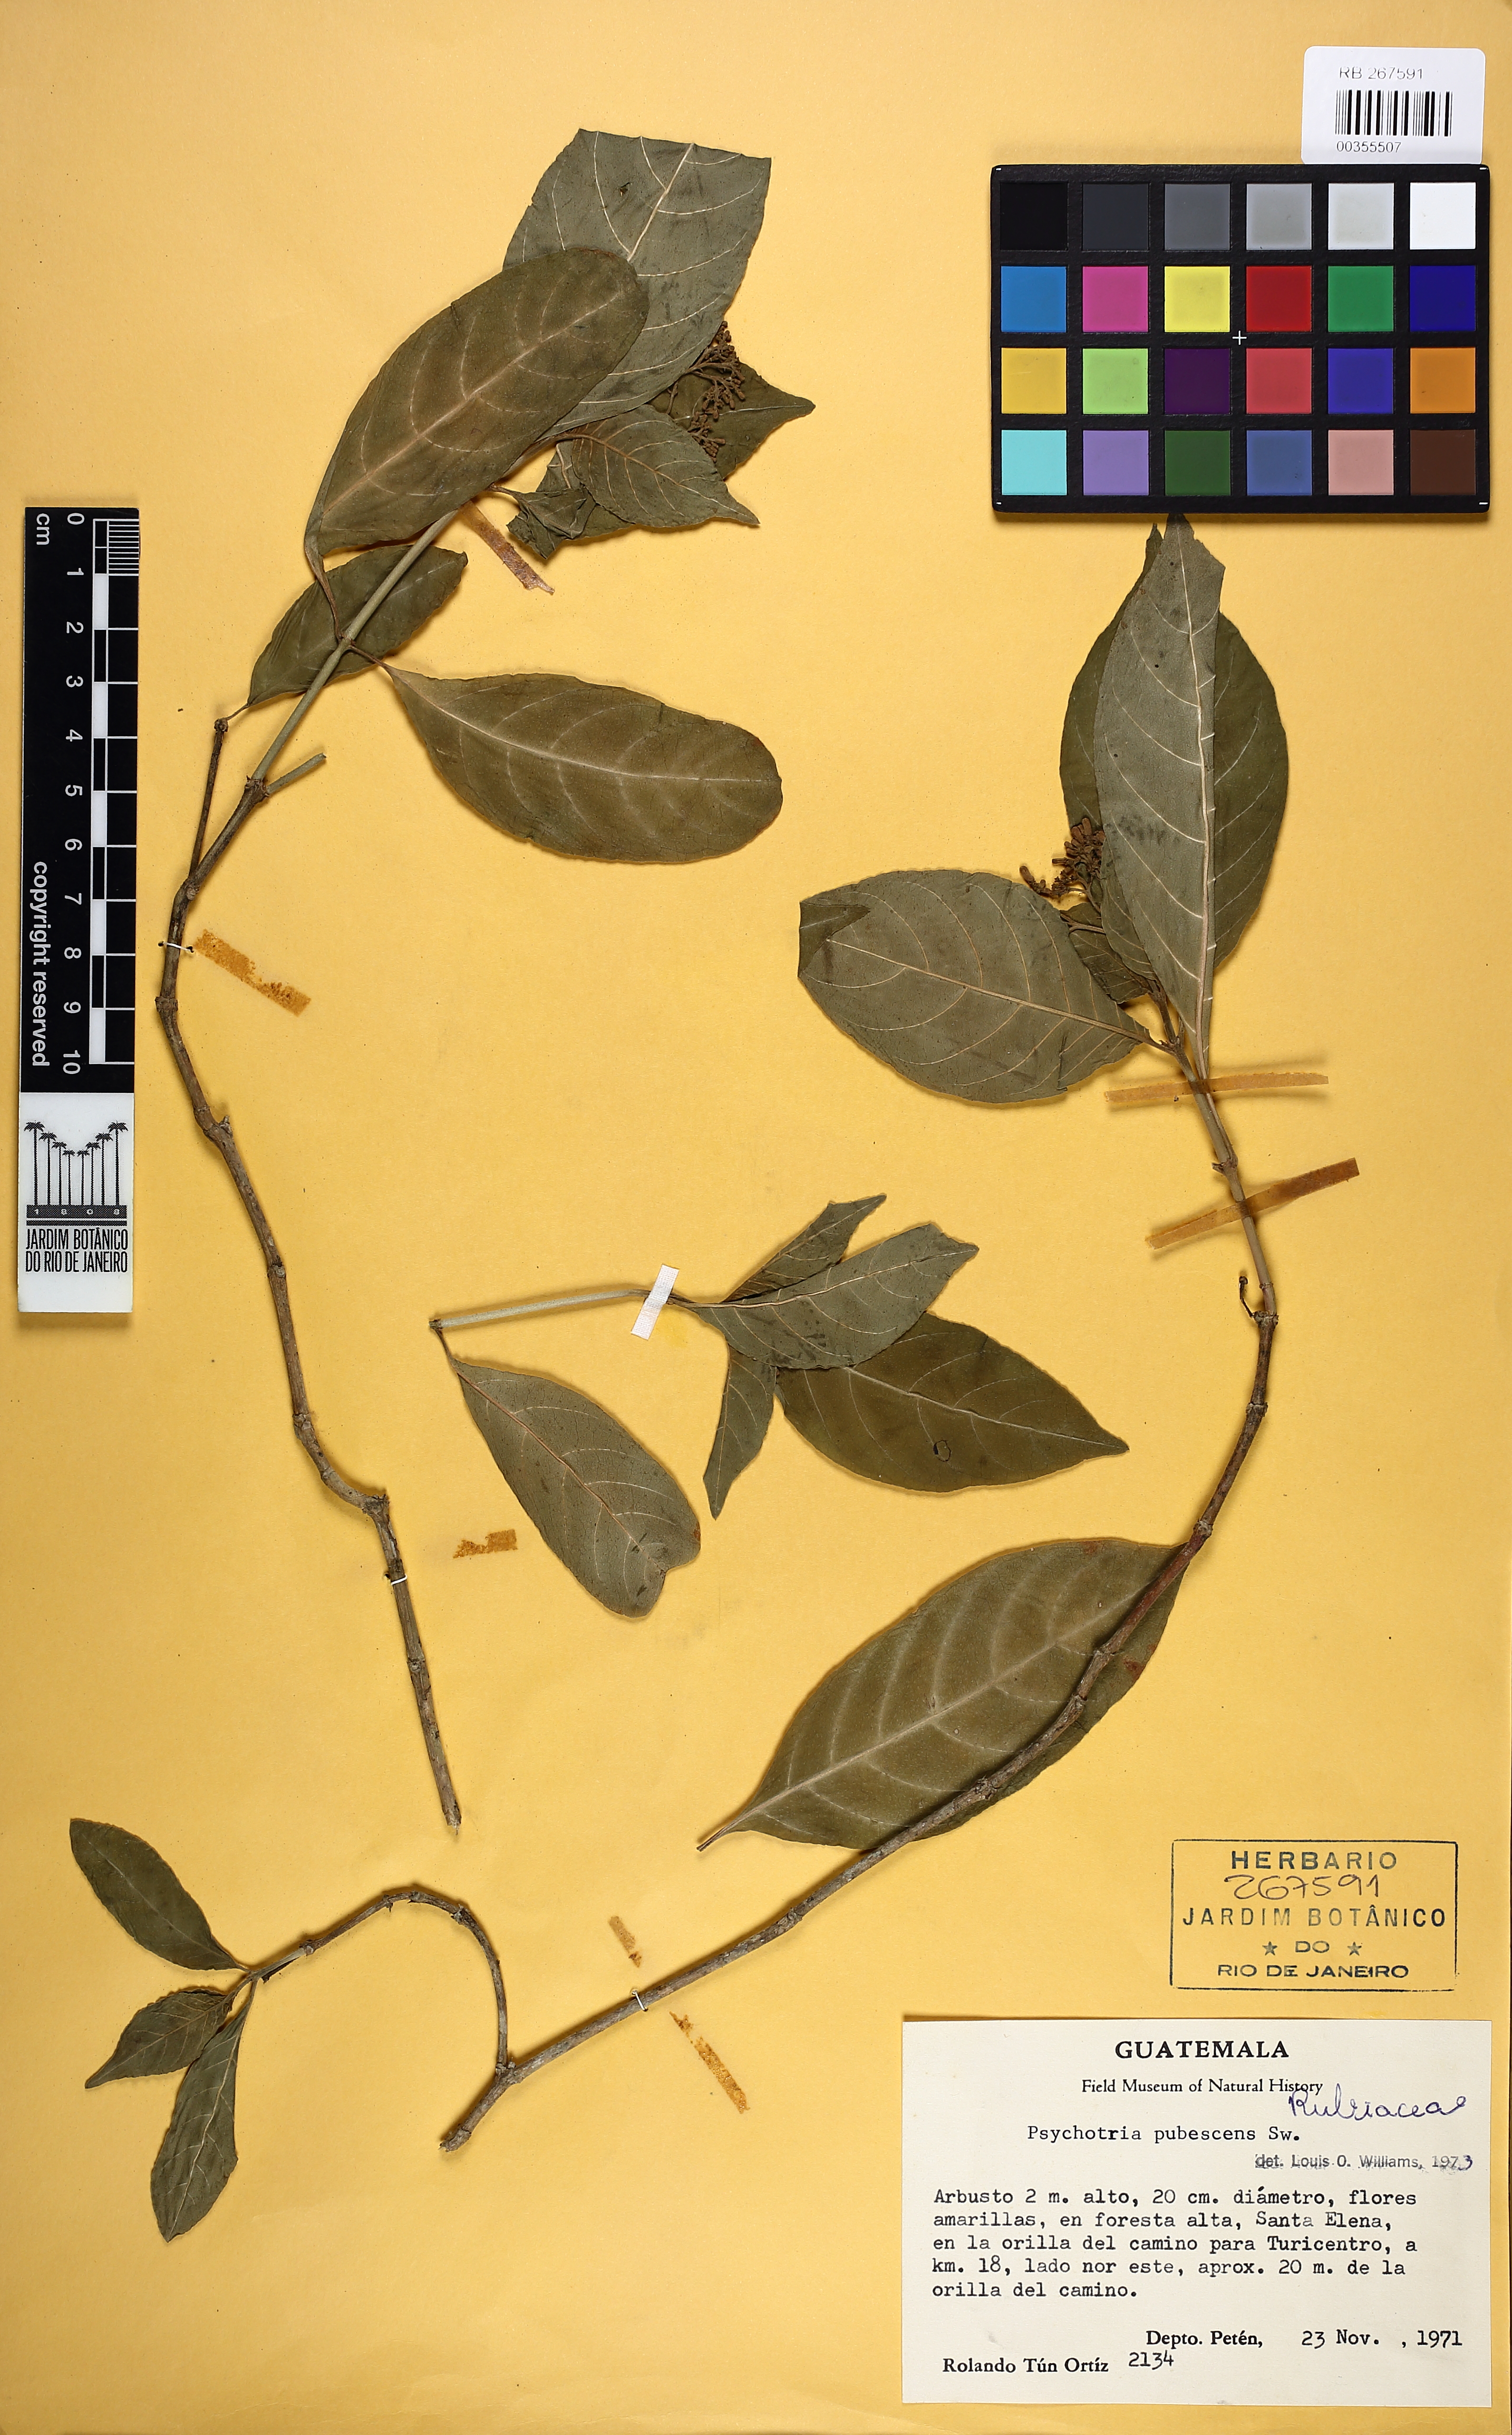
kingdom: Plantae
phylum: Tracheophyta
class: Magnoliopsida
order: Gentianales
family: Rubiaceae
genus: Palicourea
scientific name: Palicourea pubescens
